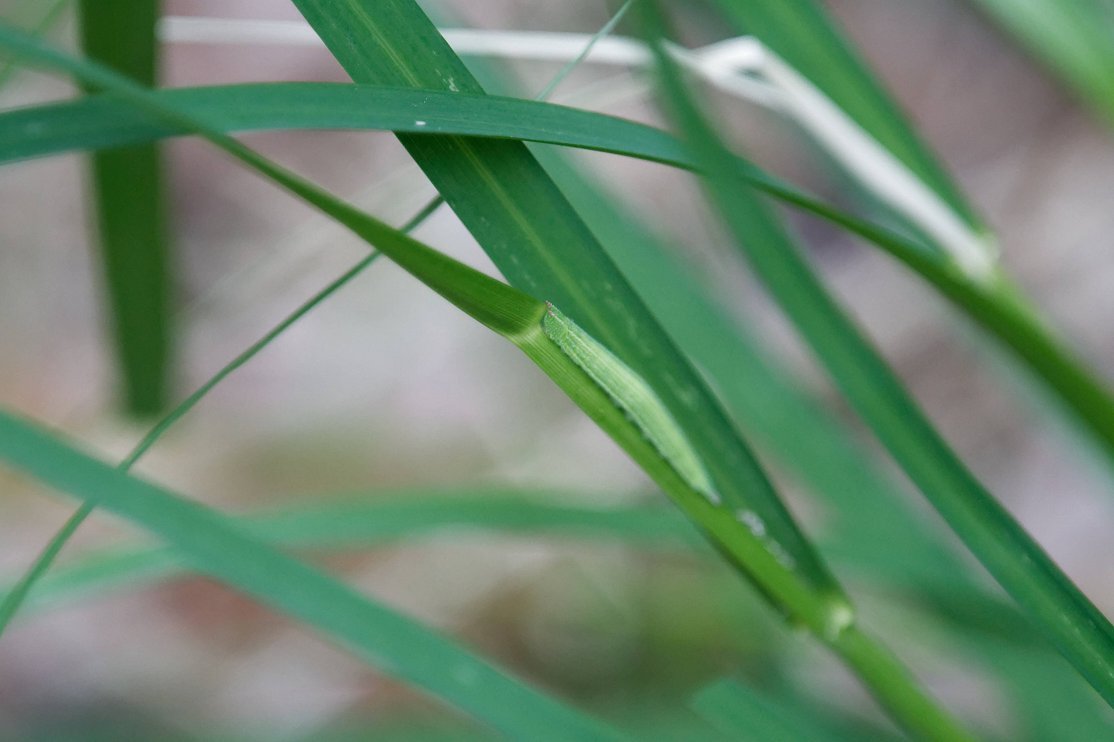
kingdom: Animalia
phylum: Arthropoda
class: Insecta
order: Lepidoptera
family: Nymphalidae
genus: Lethe
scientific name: Lethe anthedon
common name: Northern Pearly-Eye
